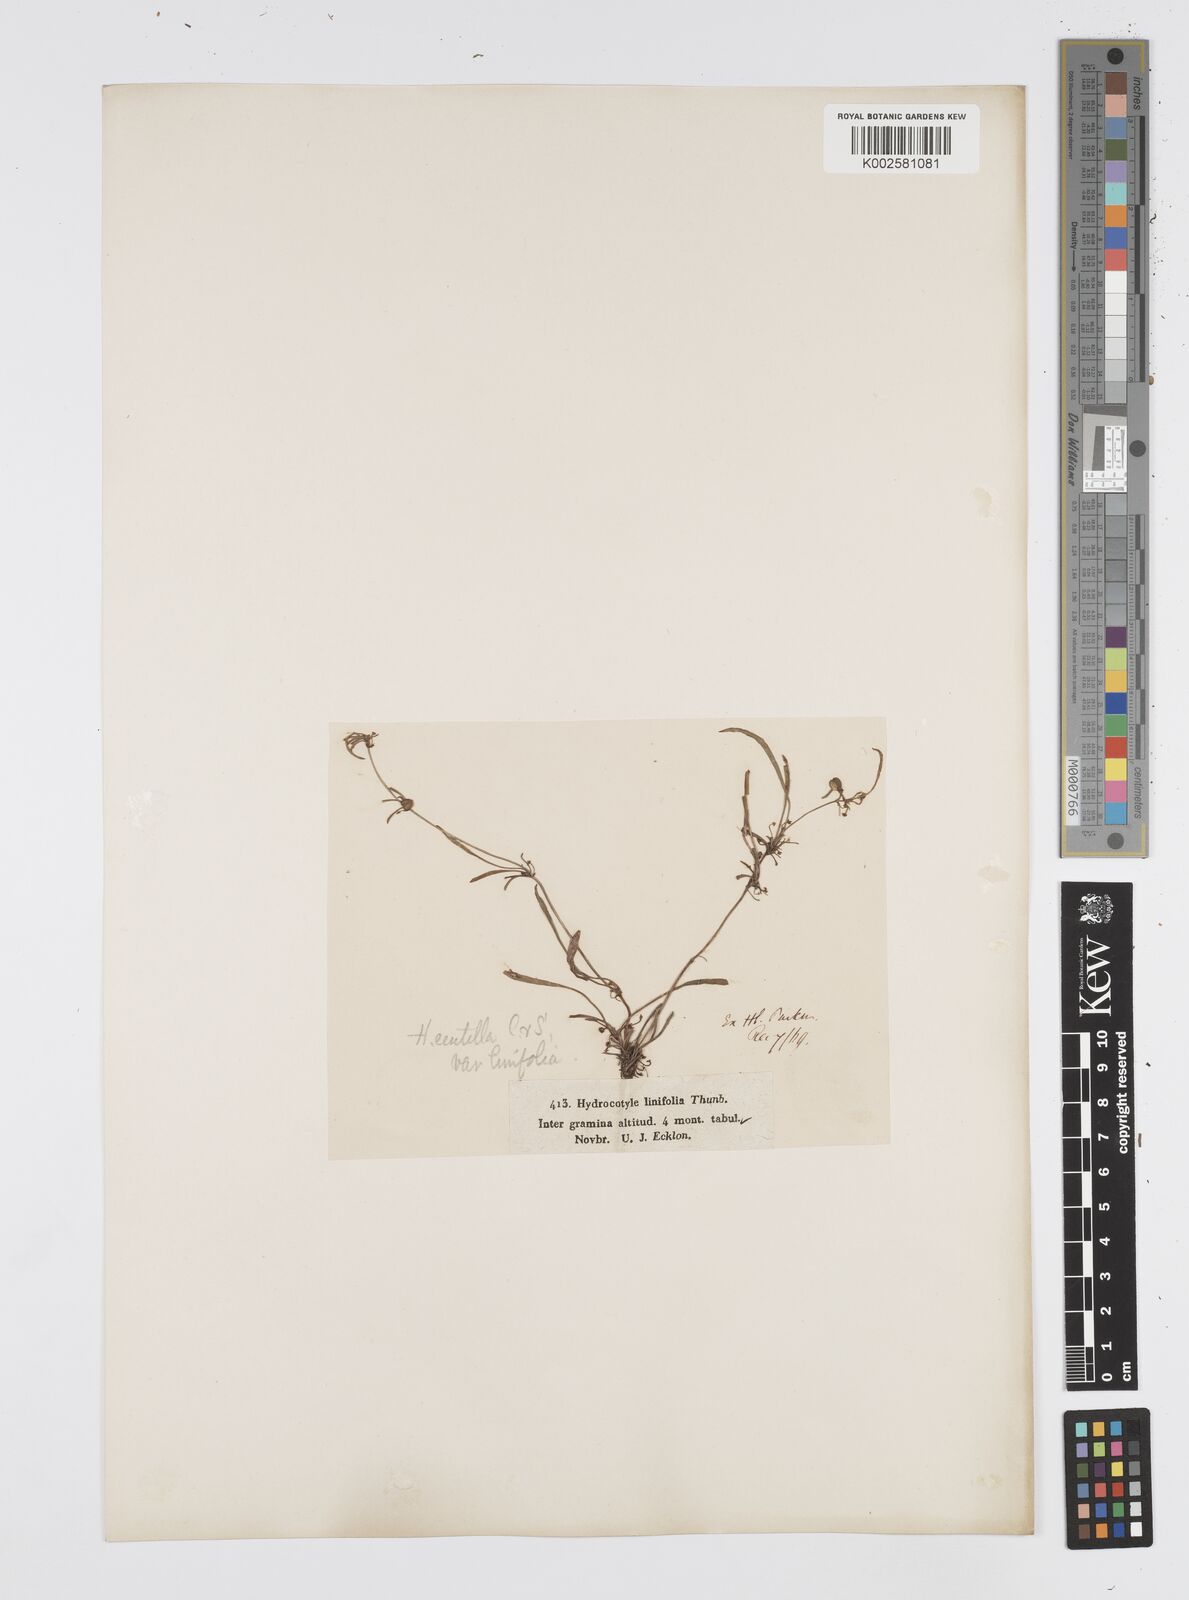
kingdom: Plantae
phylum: Tracheophyta
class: Magnoliopsida
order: Apiales
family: Apiaceae
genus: Centella
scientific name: Centella affinis
